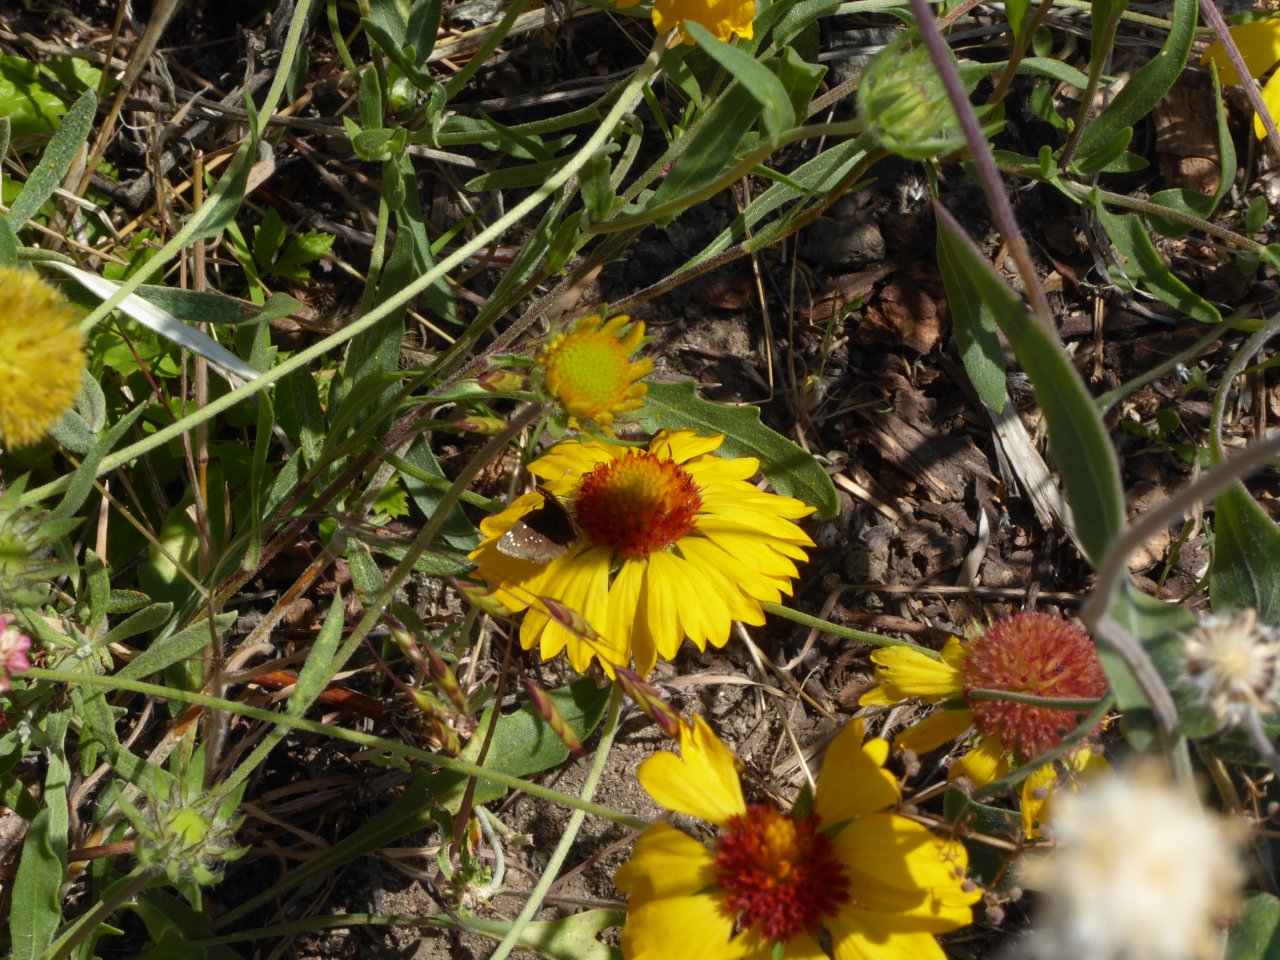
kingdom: Animalia
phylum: Arthropoda
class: Insecta
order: Lepidoptera
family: Hesperiidae
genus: Pholisora
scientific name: Pholisora catullus
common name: Common Sootywing
